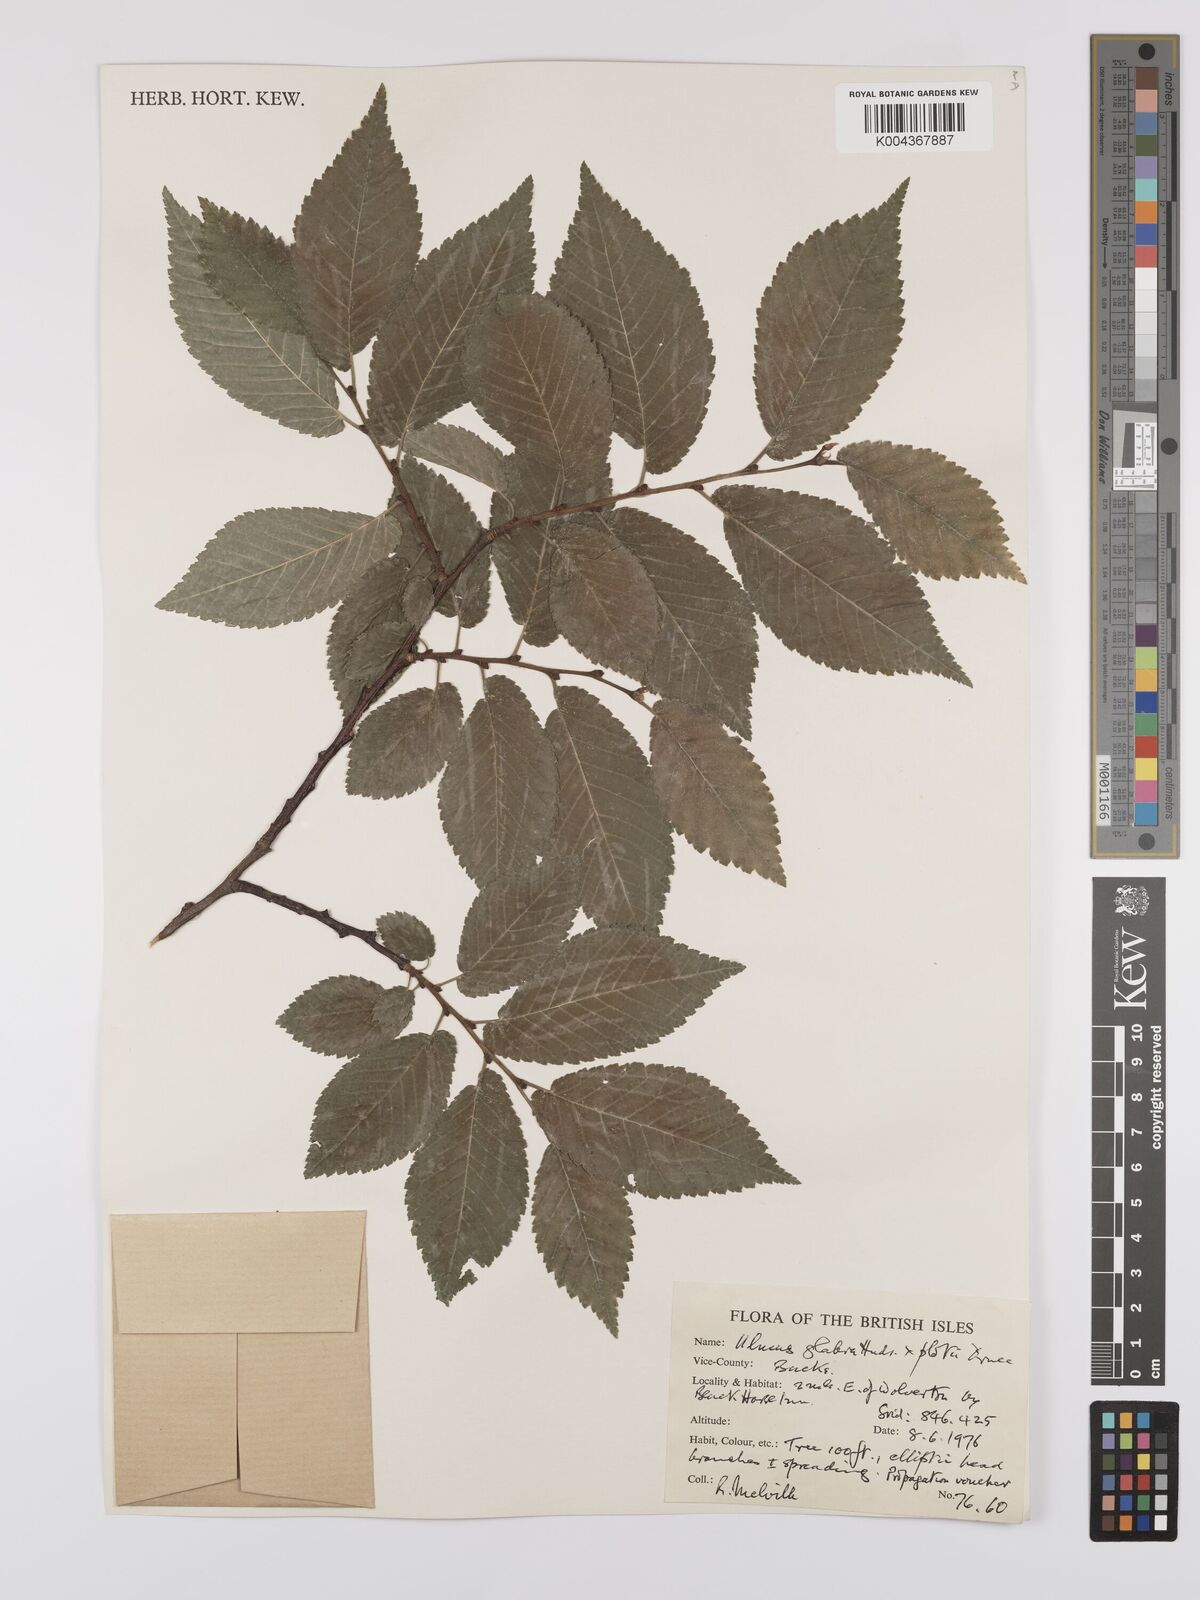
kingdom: Plantae
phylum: Tracheophyta
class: Magnoliopsida
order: Rosales
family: Ulmaceae
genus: Ulmus
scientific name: Ulmus glabra
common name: Wych elm
